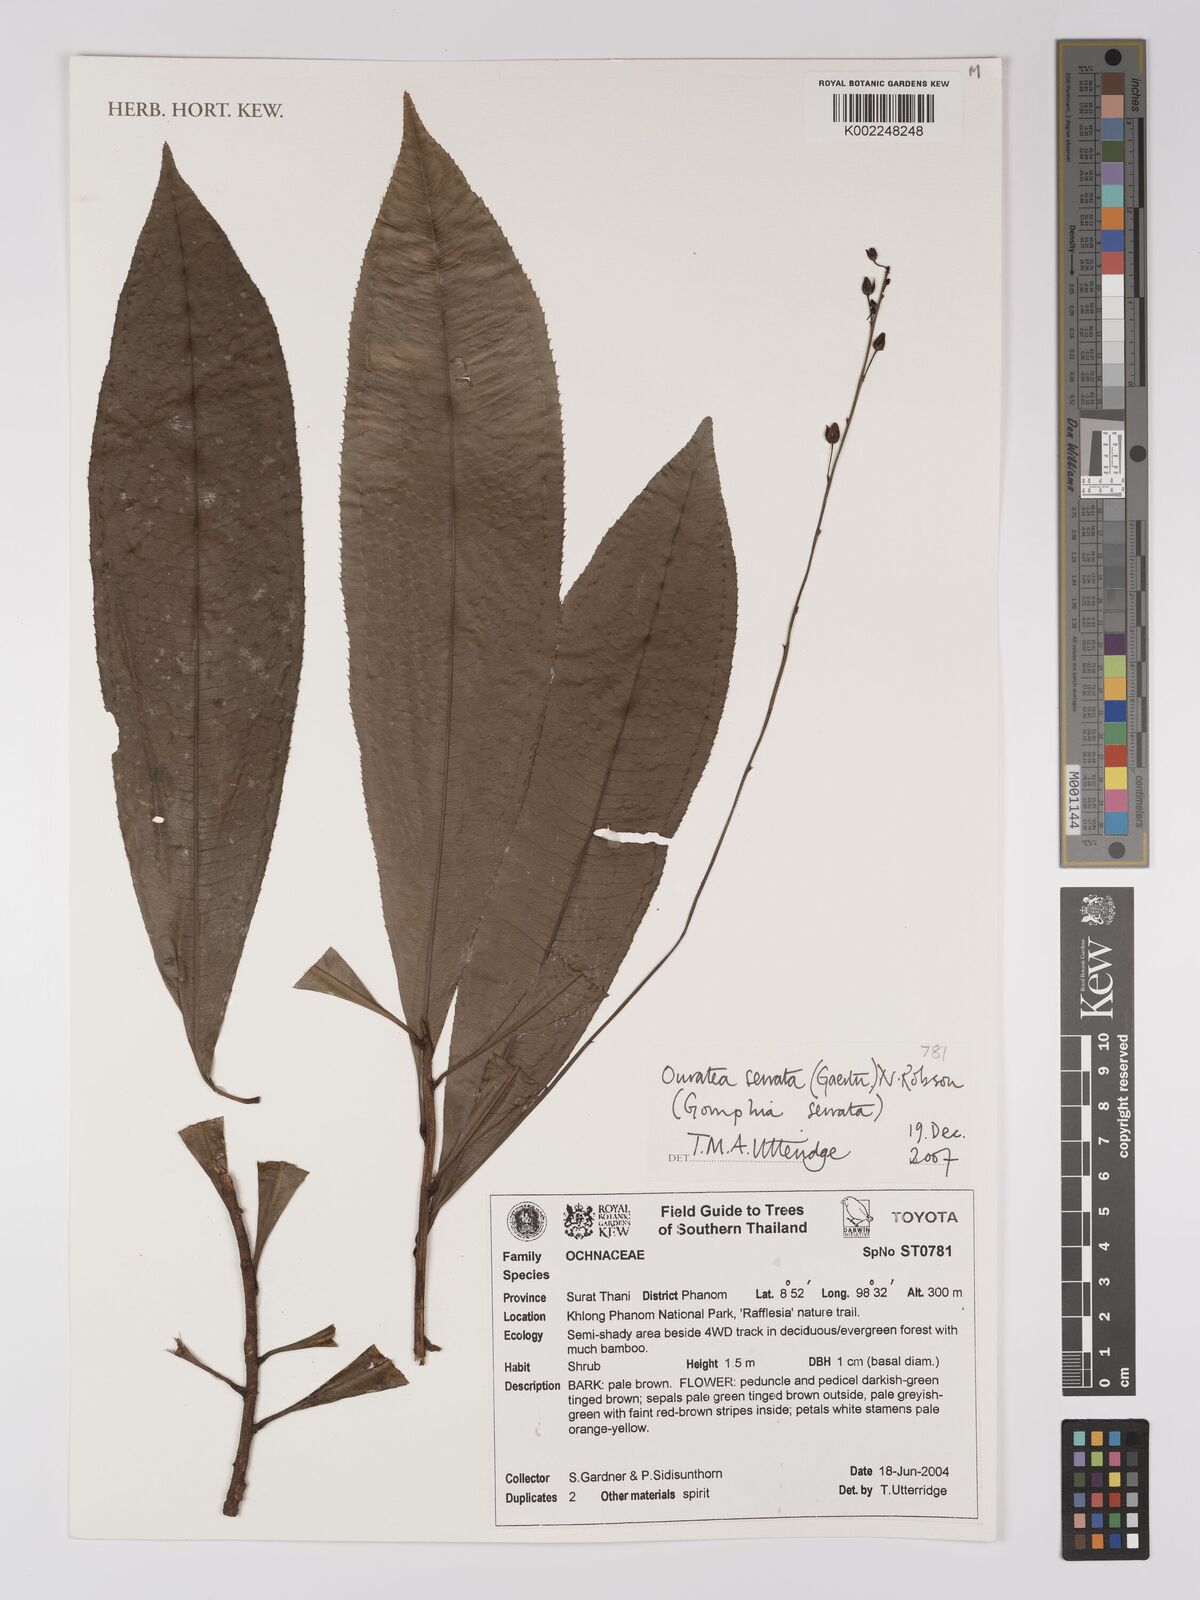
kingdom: Plantae
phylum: Tracheophyta
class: Magnoliopsida
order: Malpighiales
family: Ochnaceae
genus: Campylospermum
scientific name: Campylospermum
